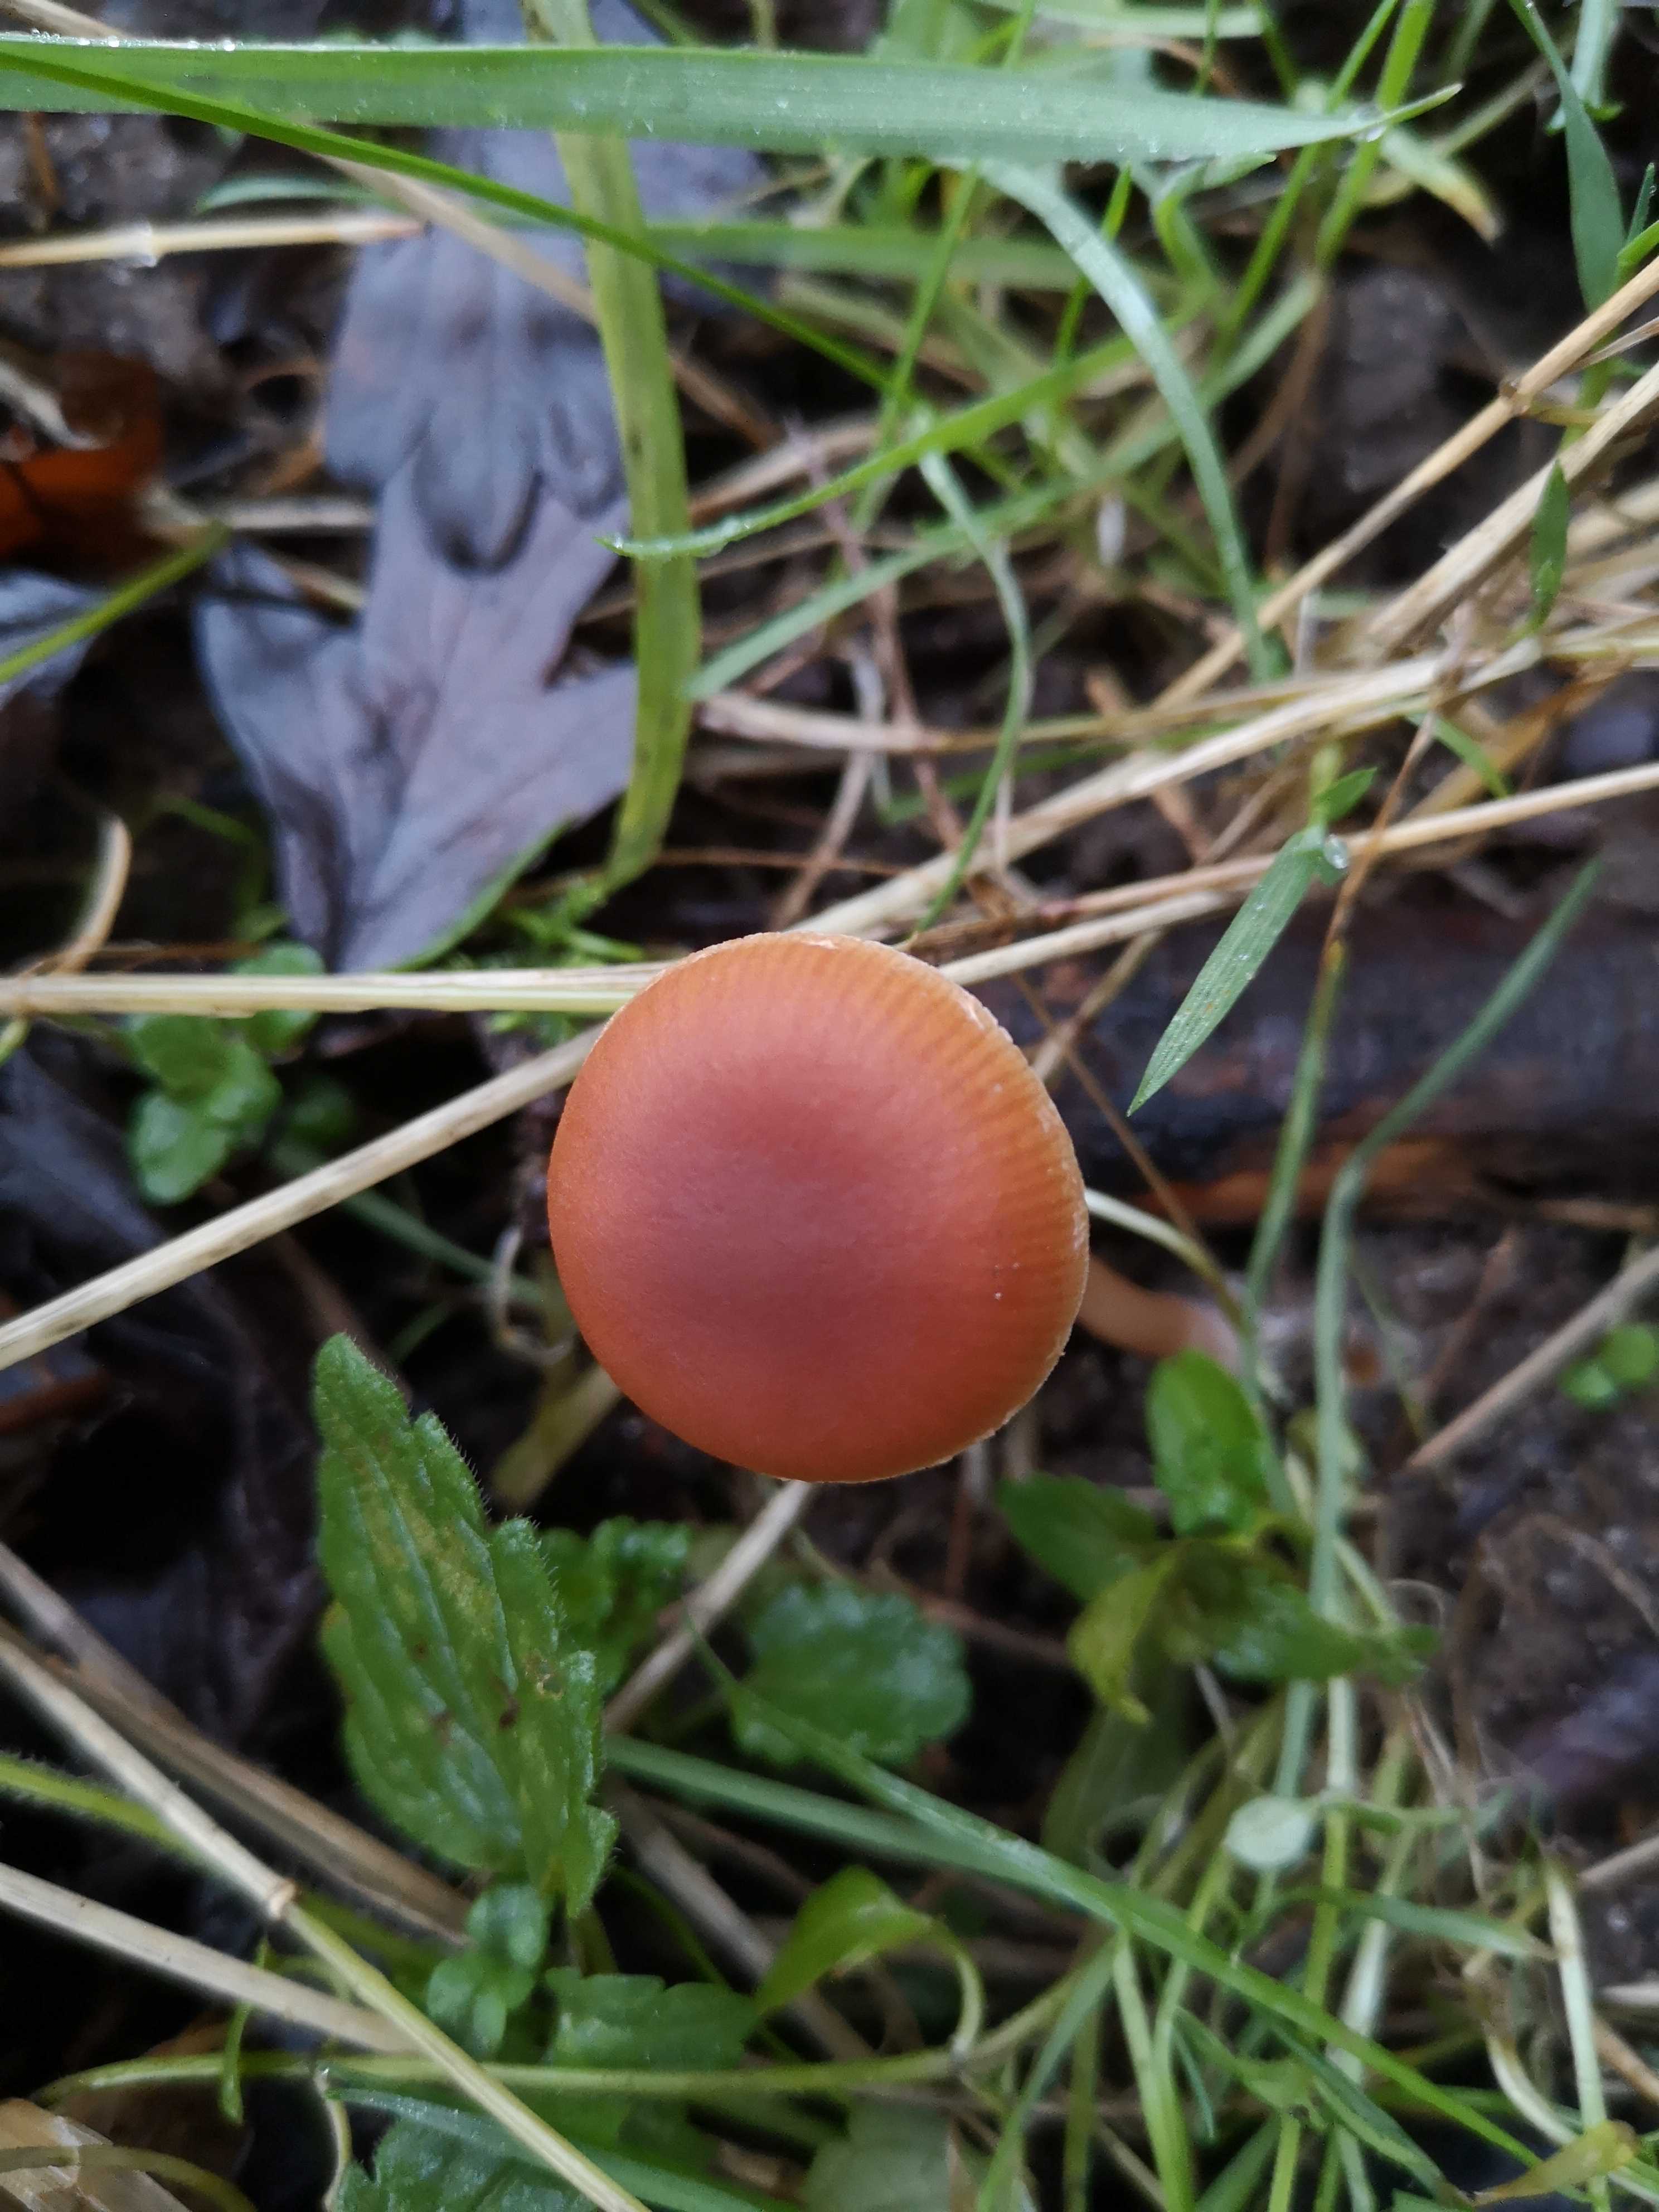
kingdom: Fungi
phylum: Basidiomycota
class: Agaricomycetes
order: Agaricales
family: Tubariaceae
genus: Tubaria
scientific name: Tubaria furfuracea
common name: kliddet fnughat
